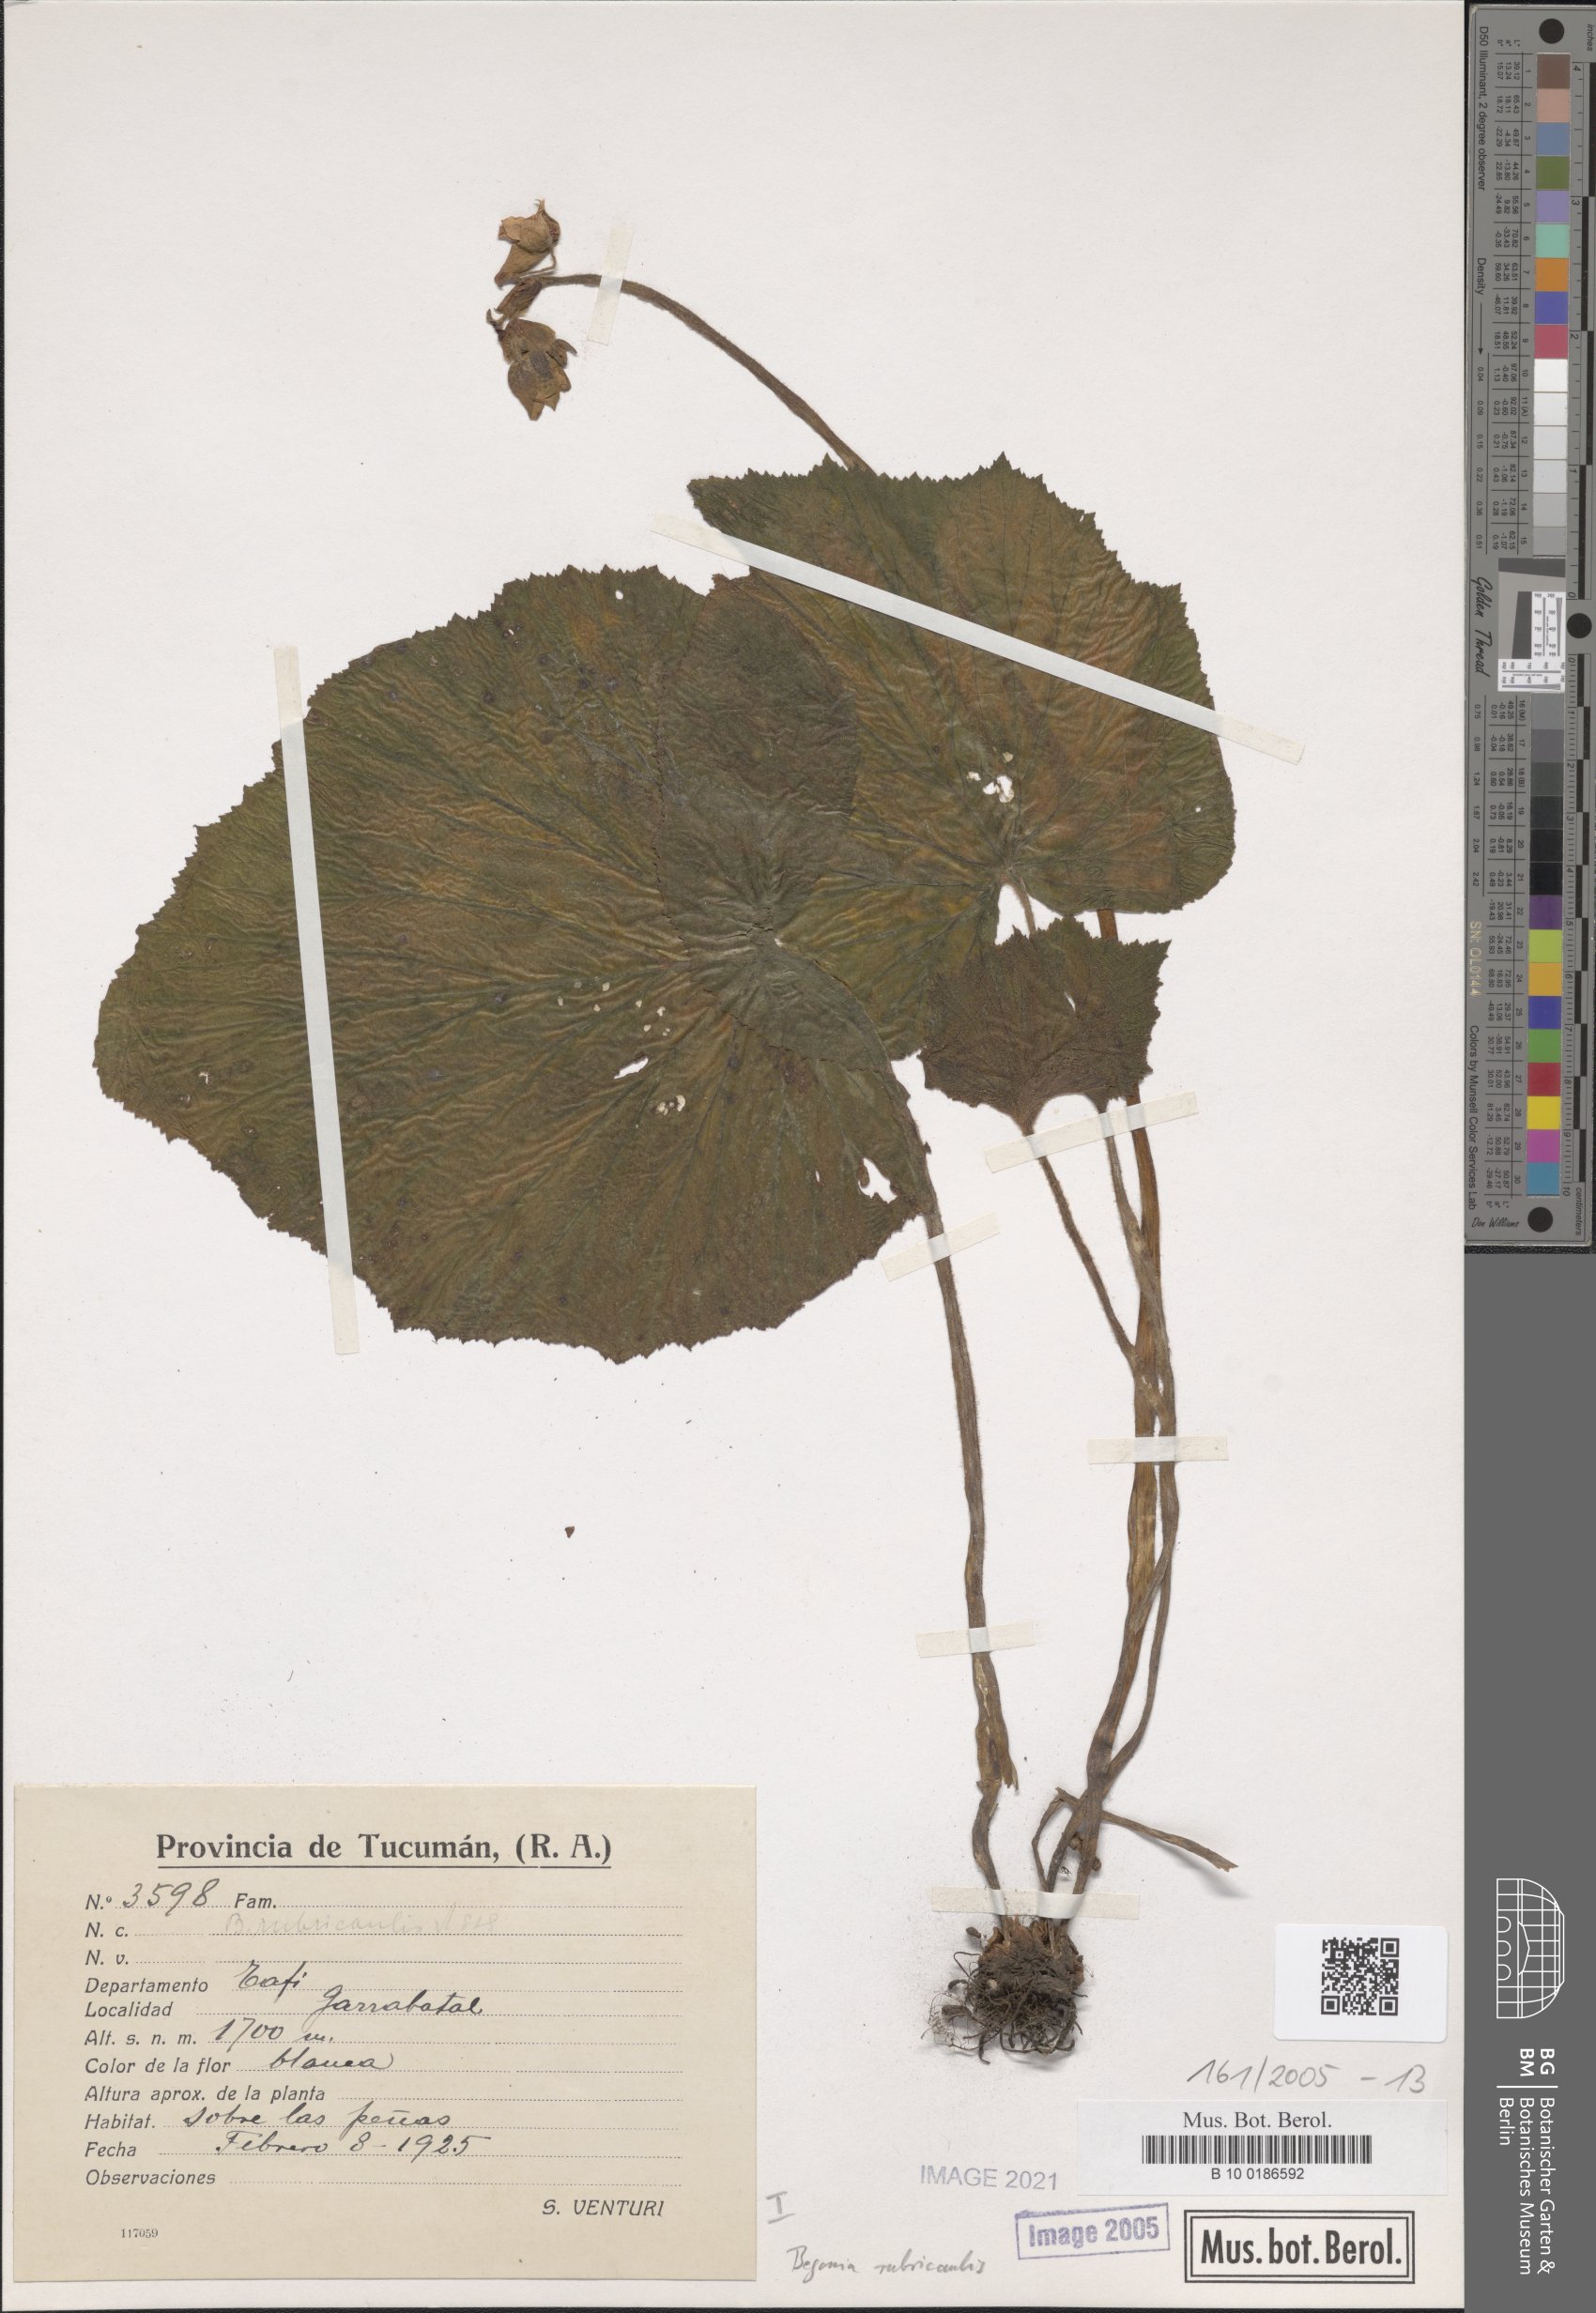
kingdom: Plantae
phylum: Tracheophyta
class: Magnoliopsida
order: Cucurbitales
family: Begoniaceae
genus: Begonia
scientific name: Begonia rubricaulis
